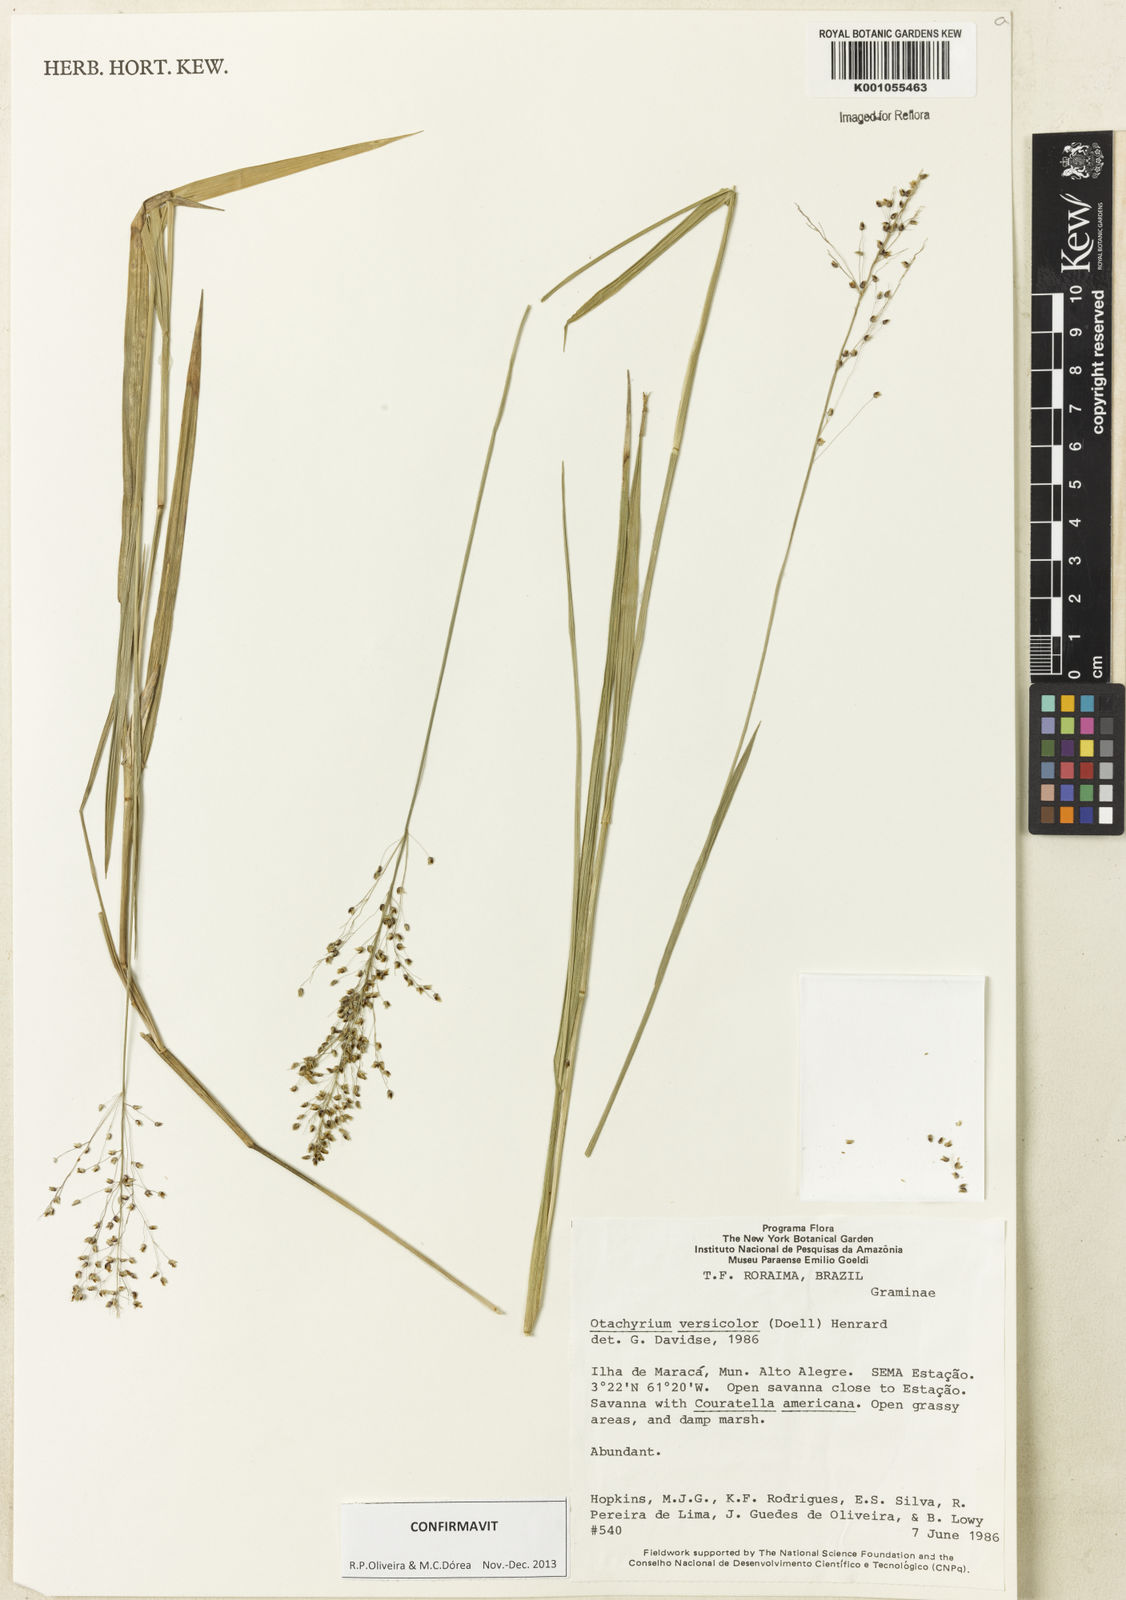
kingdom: Plantae
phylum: Tracheophyta
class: Liliopsida
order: Poales
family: Poaceae
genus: Otachyrium
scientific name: Otachyrium
